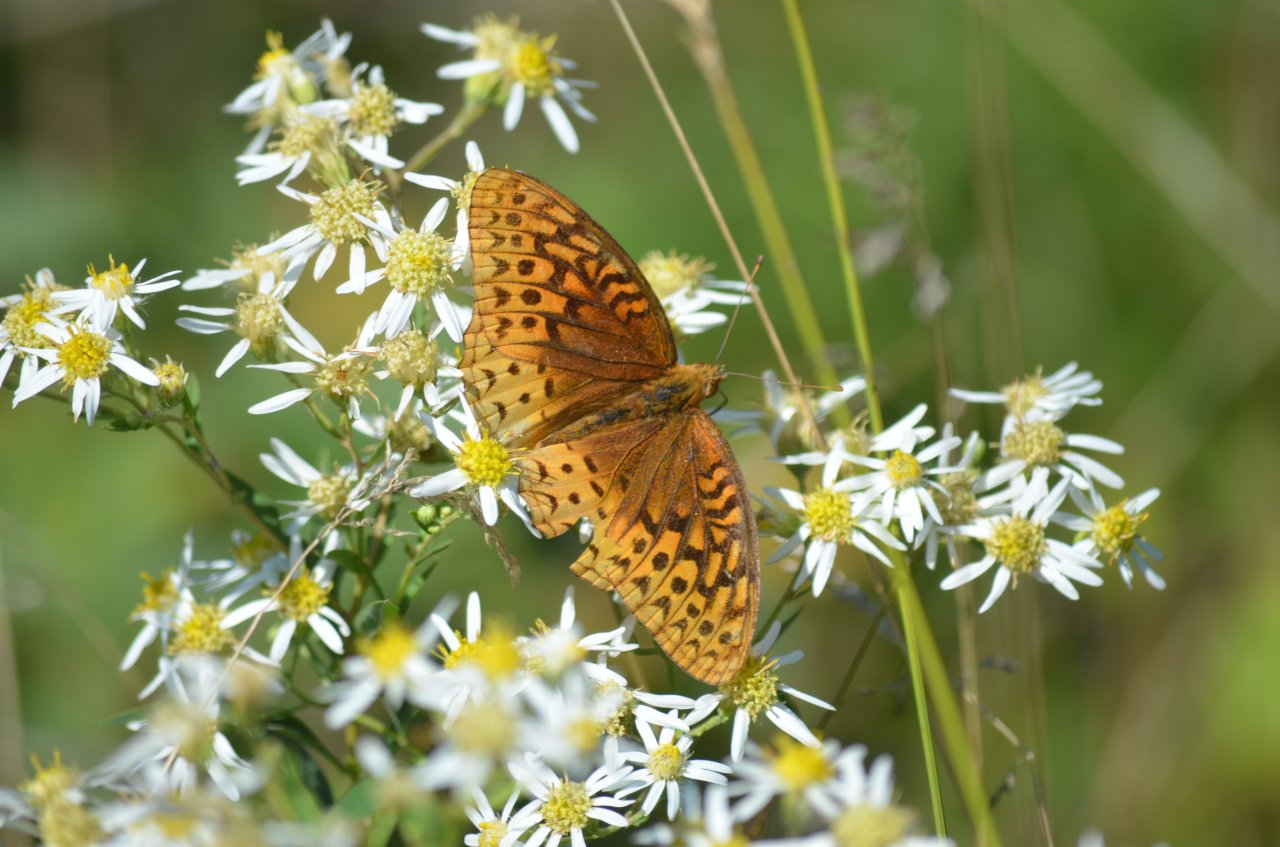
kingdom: Animalia
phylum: Arthropoda
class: Insecta
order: Lepidoptera
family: Nymphalidae
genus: Speyeria
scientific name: Speyeria cybele
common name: Great Spangled Fritillary
